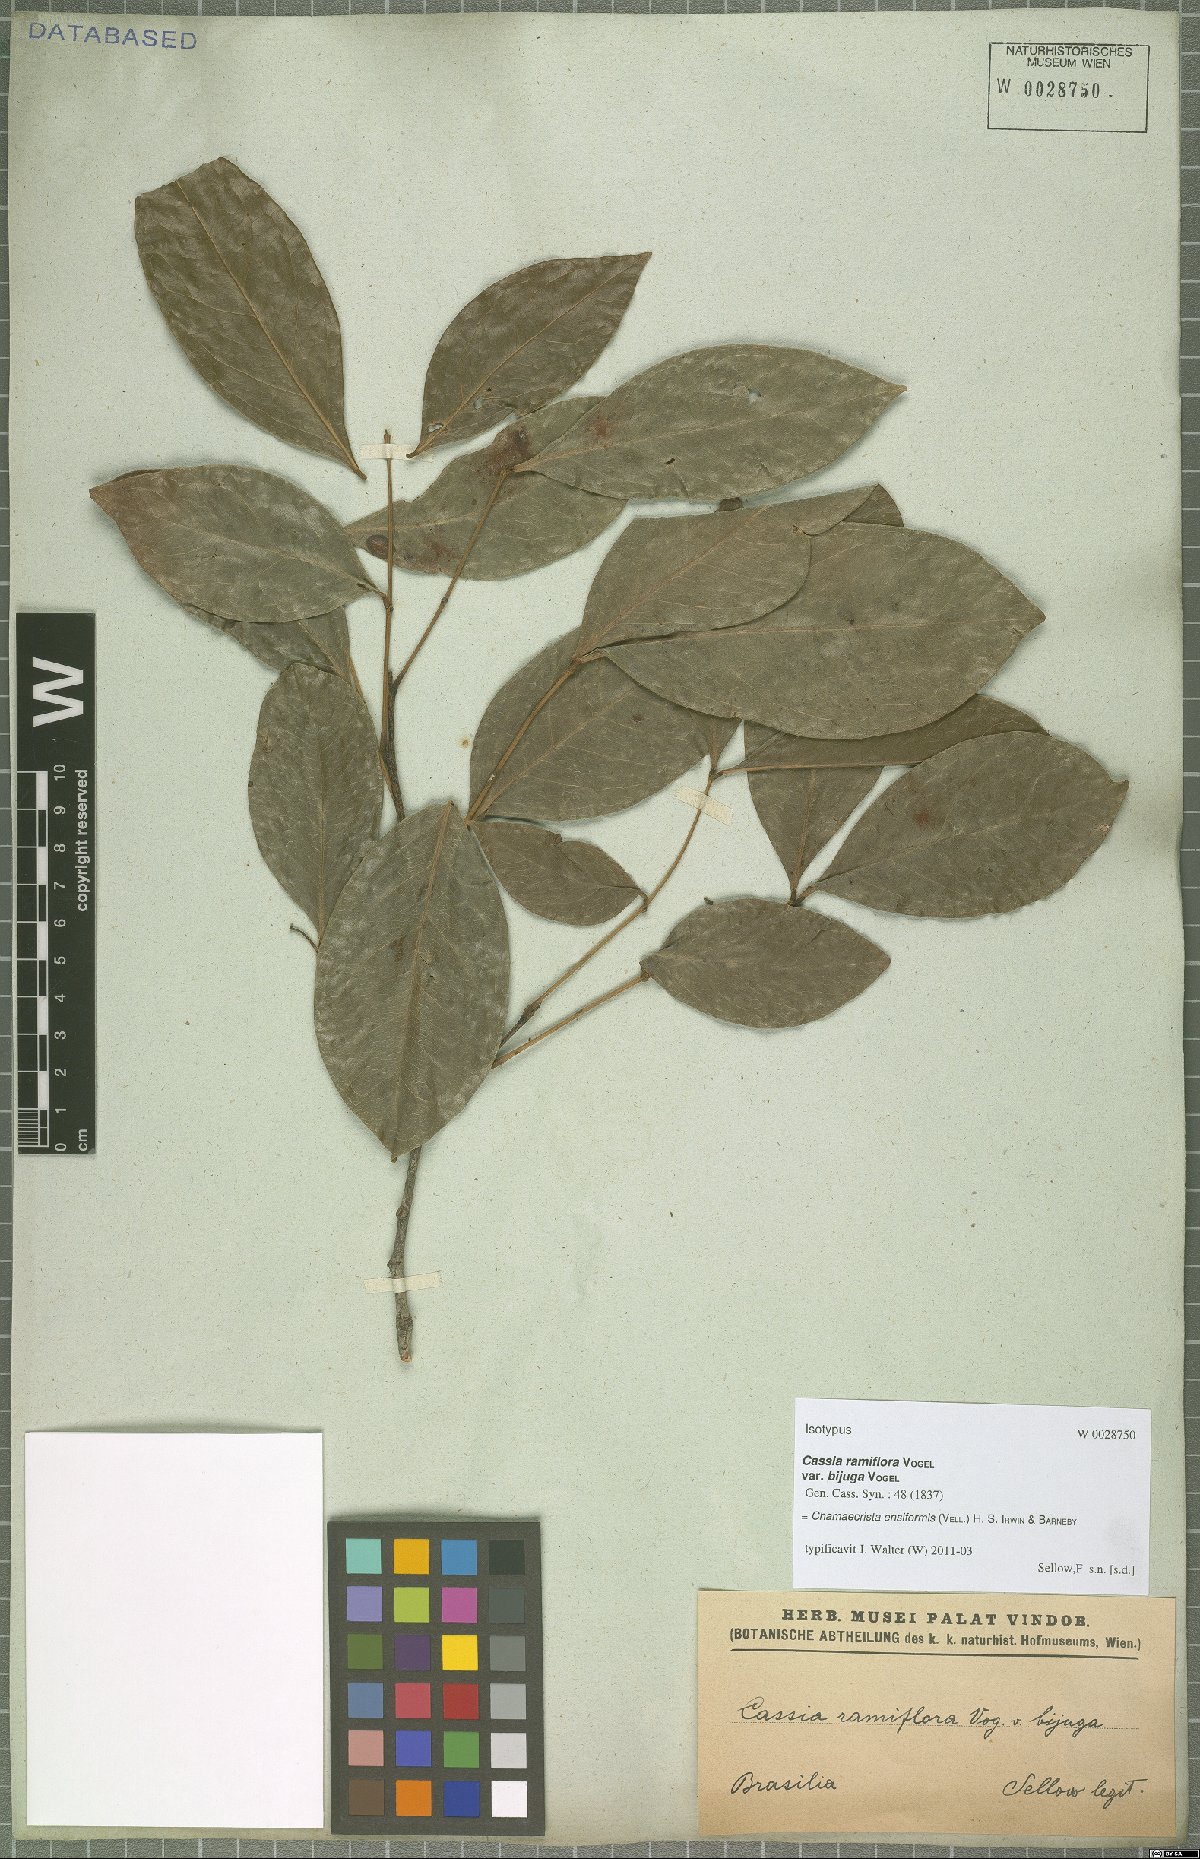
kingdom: Plantae
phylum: Tracheophyta
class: Magnoliopsida
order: Fabales
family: Fabaceae
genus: Chamaecrista
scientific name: Chamaecrista ensiformis
